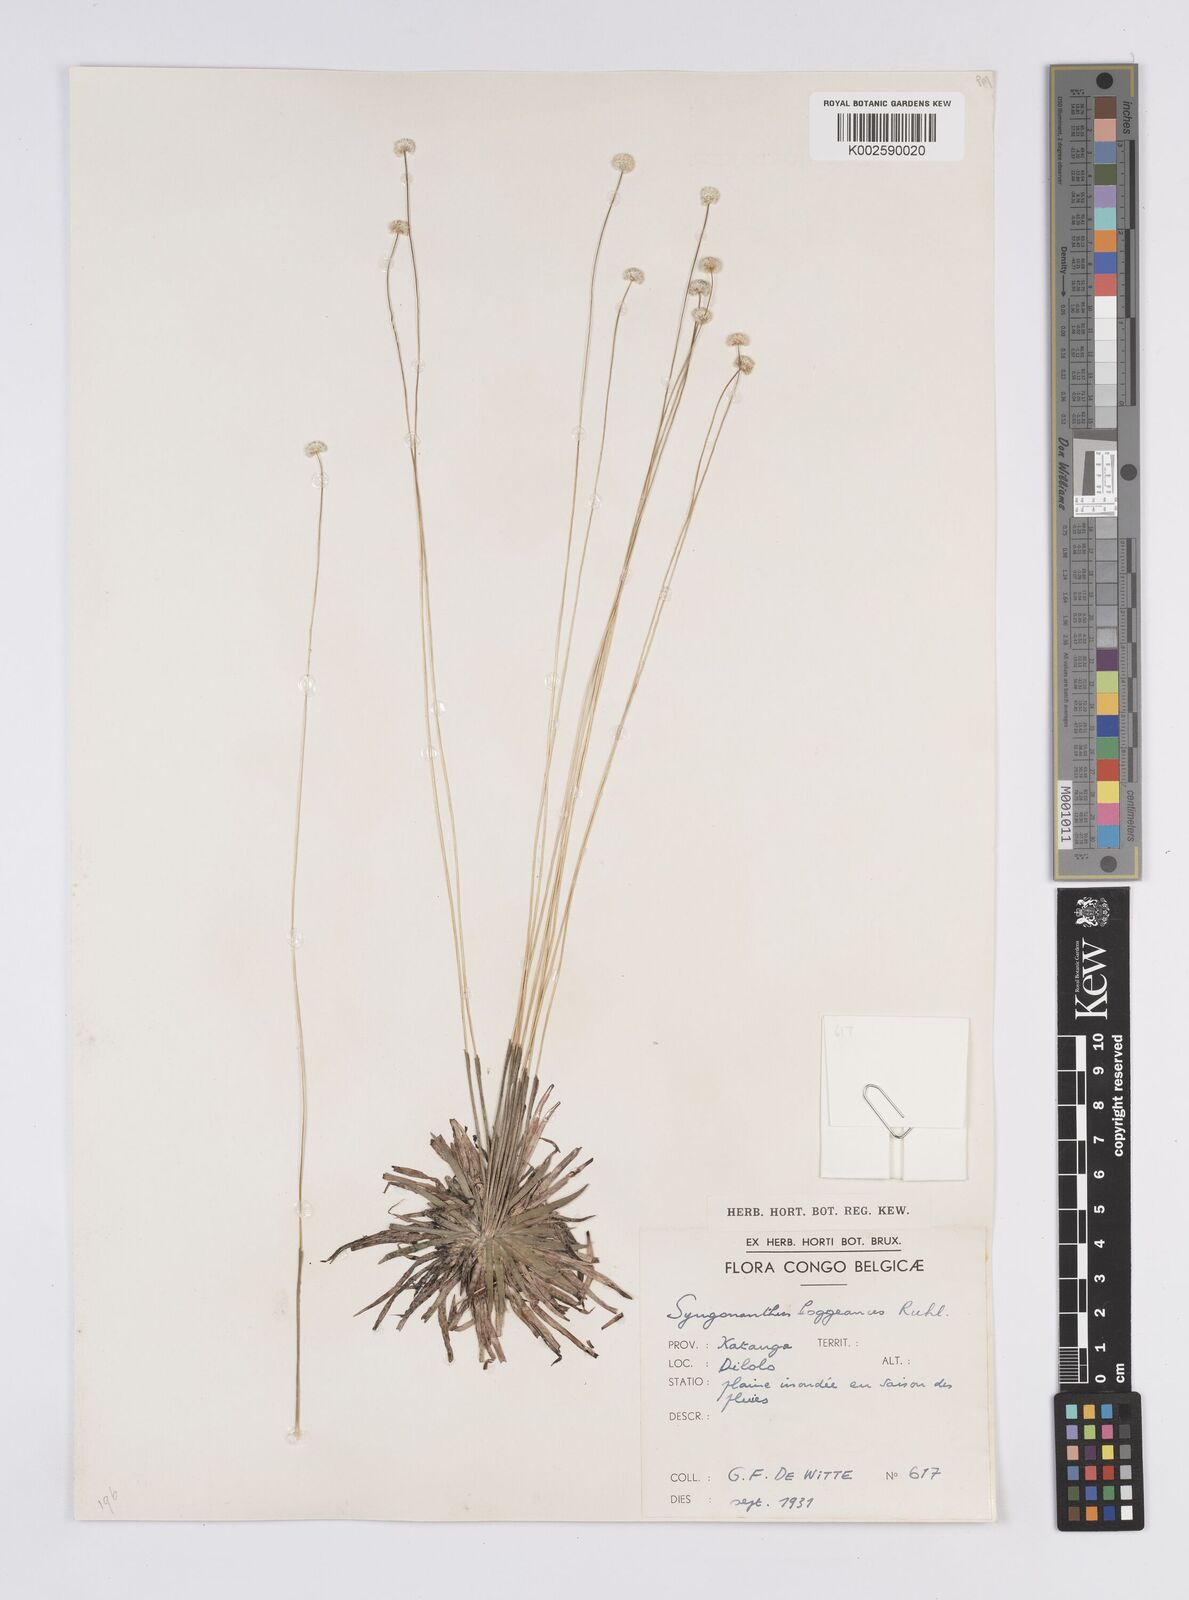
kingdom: Plantae
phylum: Tracheophyta
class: Liliopsida
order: Poales
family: Eriocaulaceae
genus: Syngonanthus
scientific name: Syngonanthus poggeanus
